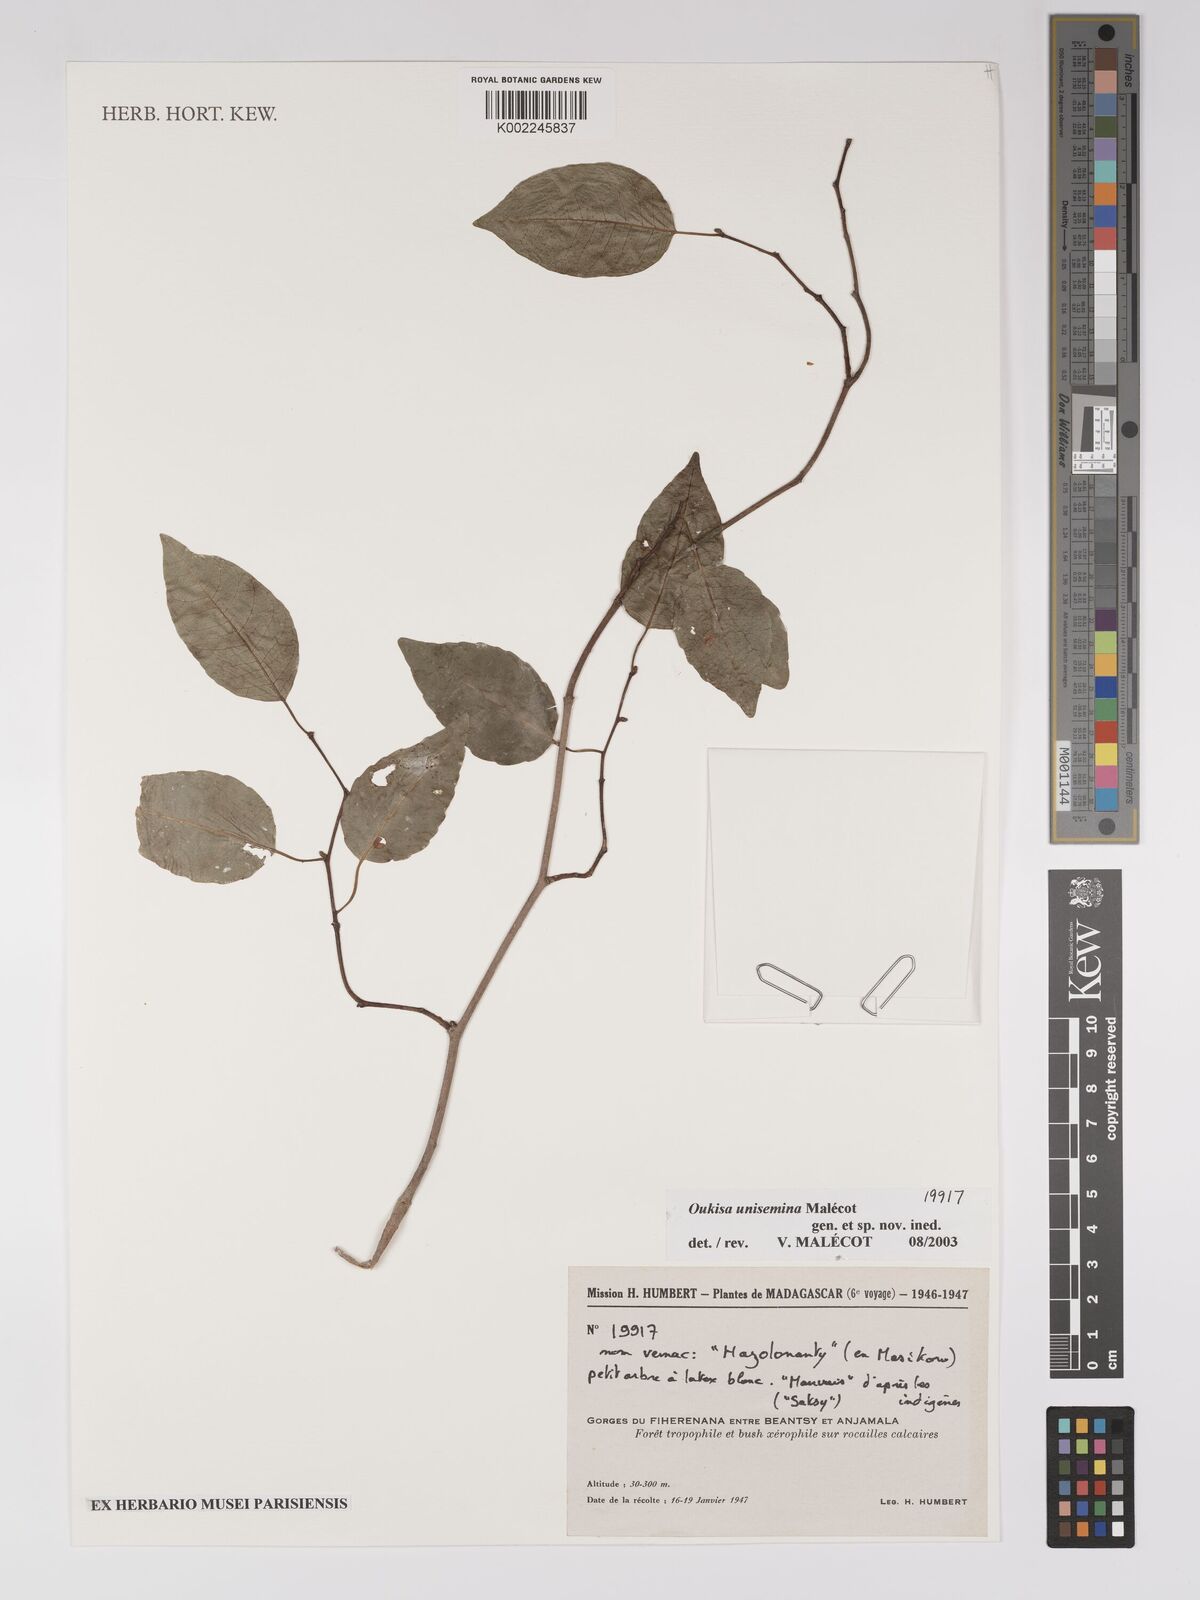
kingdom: Plantae
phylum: Tracheophyta
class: Magnoliopsida
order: Malpighiales
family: Euphorbiaceae
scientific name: Euphorbiaceae
